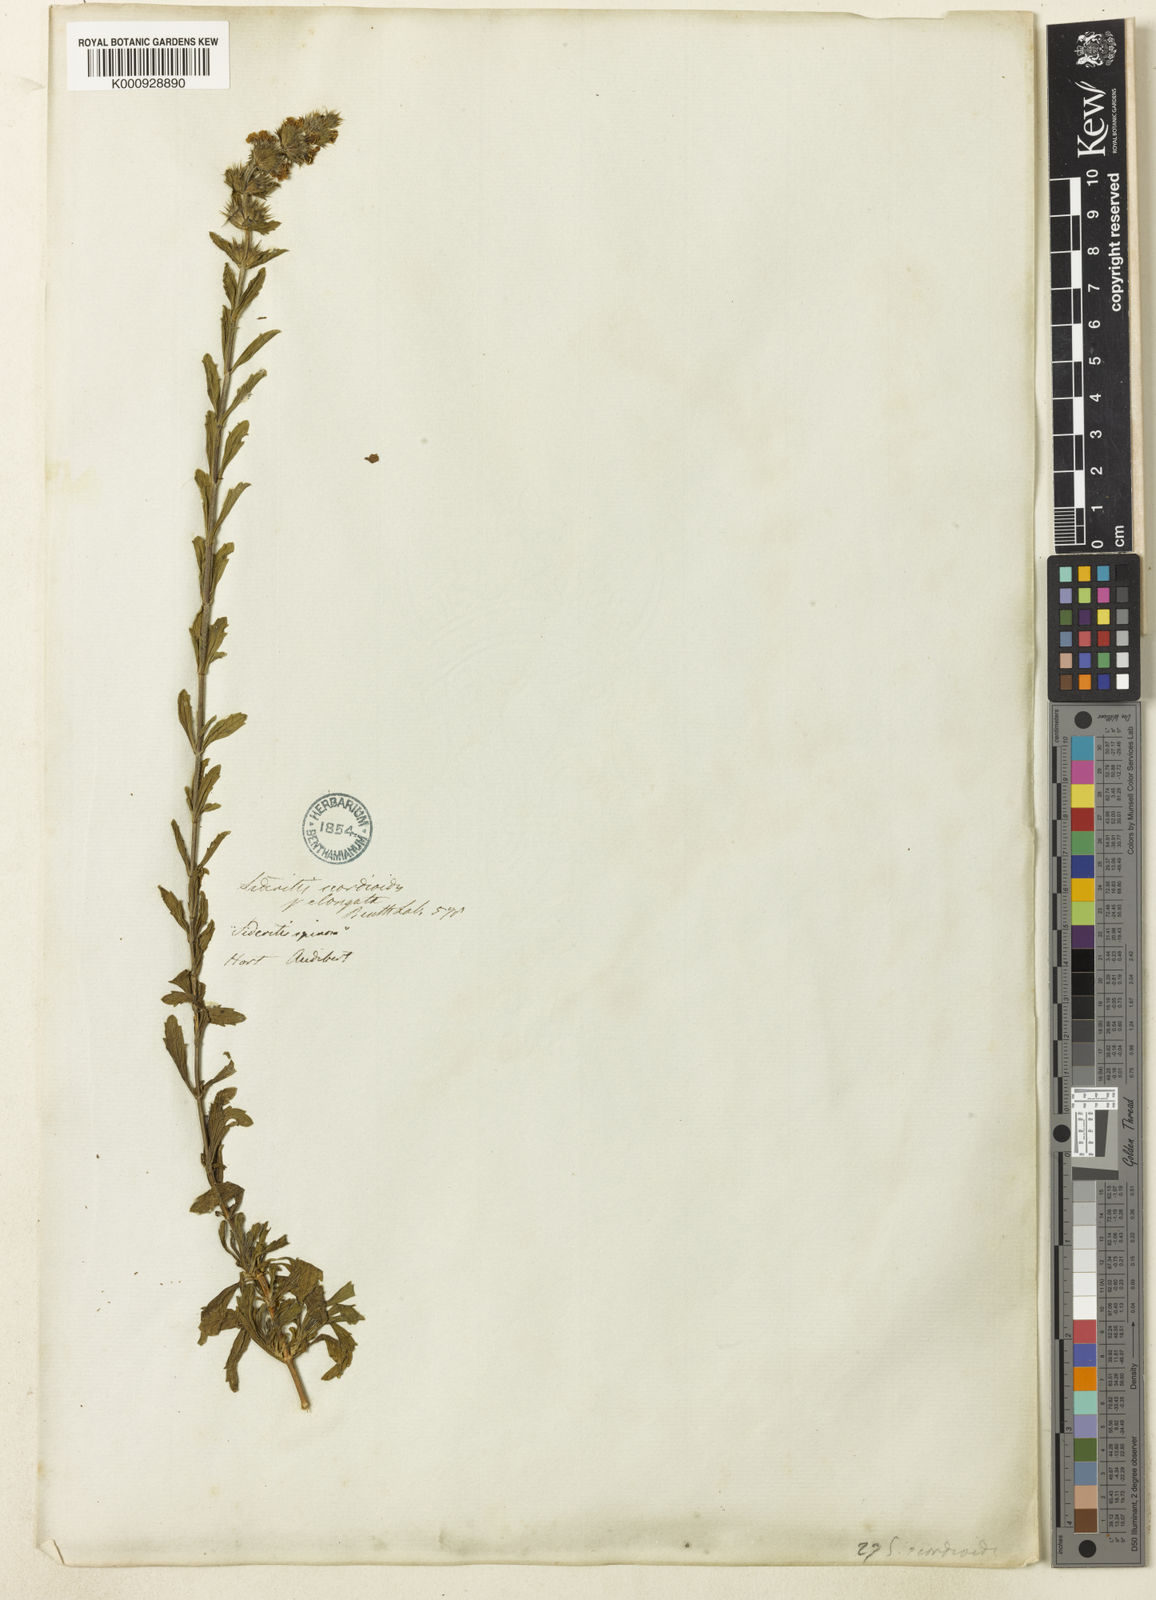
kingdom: Plantae
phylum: Tracheophyta
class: Magnoliopsida
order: Lamiales
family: Lamiaceae
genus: Sideritis
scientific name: Sideritis hyssopifolia
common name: Mountain tea
